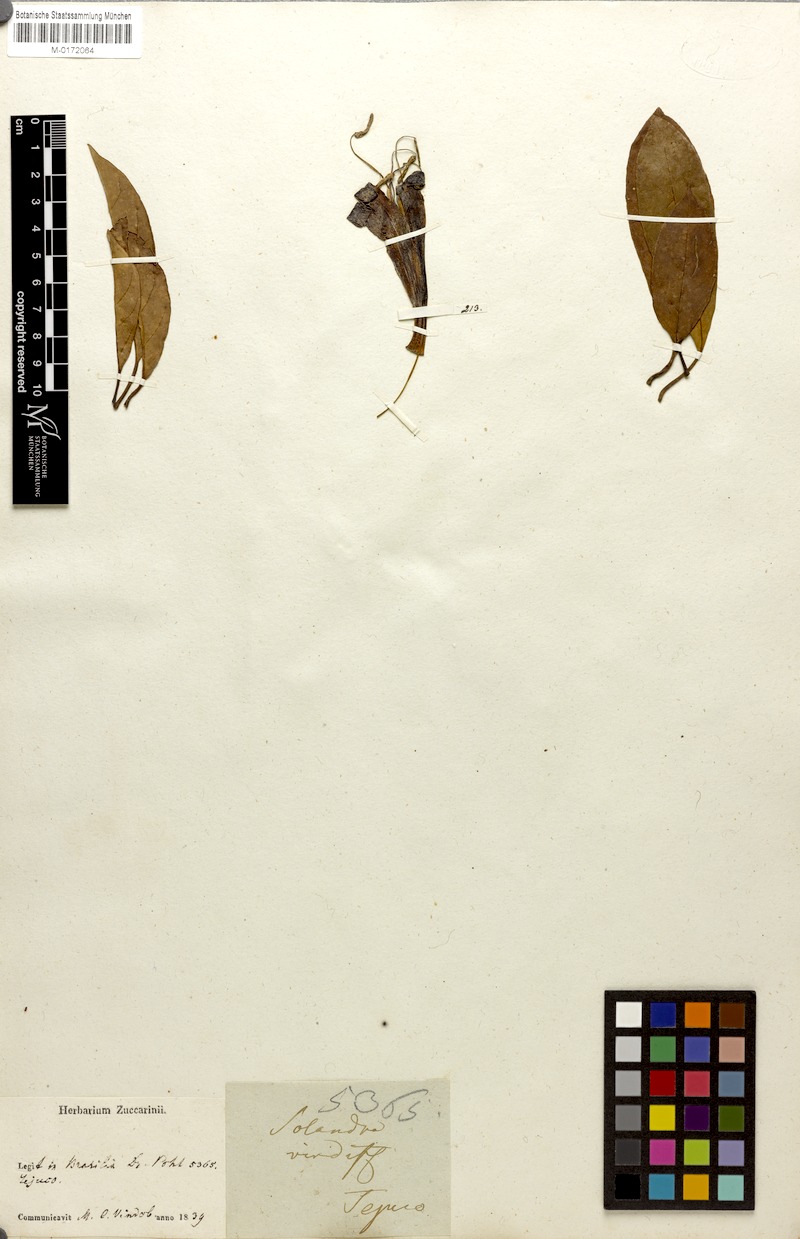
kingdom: Plantae
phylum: Tracheophyta
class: Magnoliopsida
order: Solanales
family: Solanaceae
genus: Dyssochroma
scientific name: Dyssochroma viridiflorum
